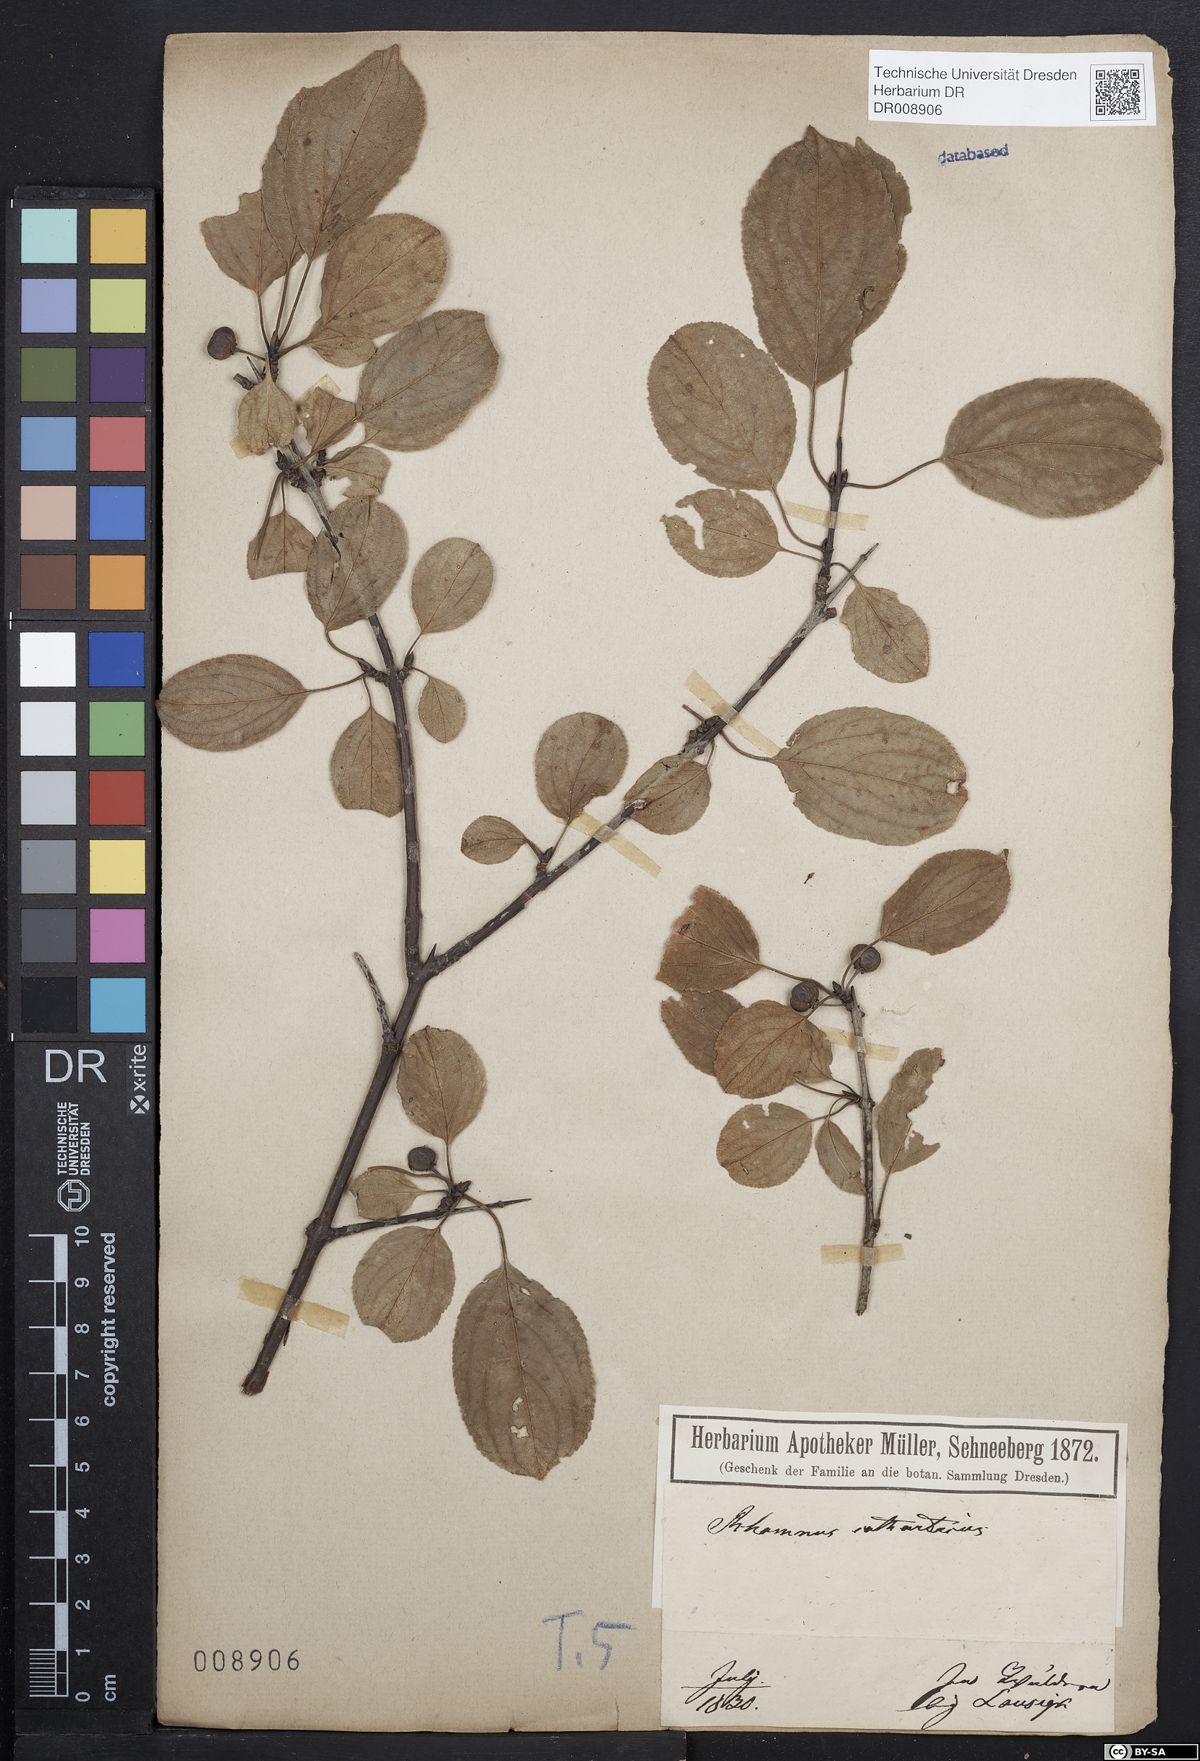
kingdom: Plantae
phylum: Tracheophyta
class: Magnoliopsida
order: Rosales
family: Rhamnaceae
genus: Rhamnus
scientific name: Rhamnus cathartica
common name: Common buckthorn
